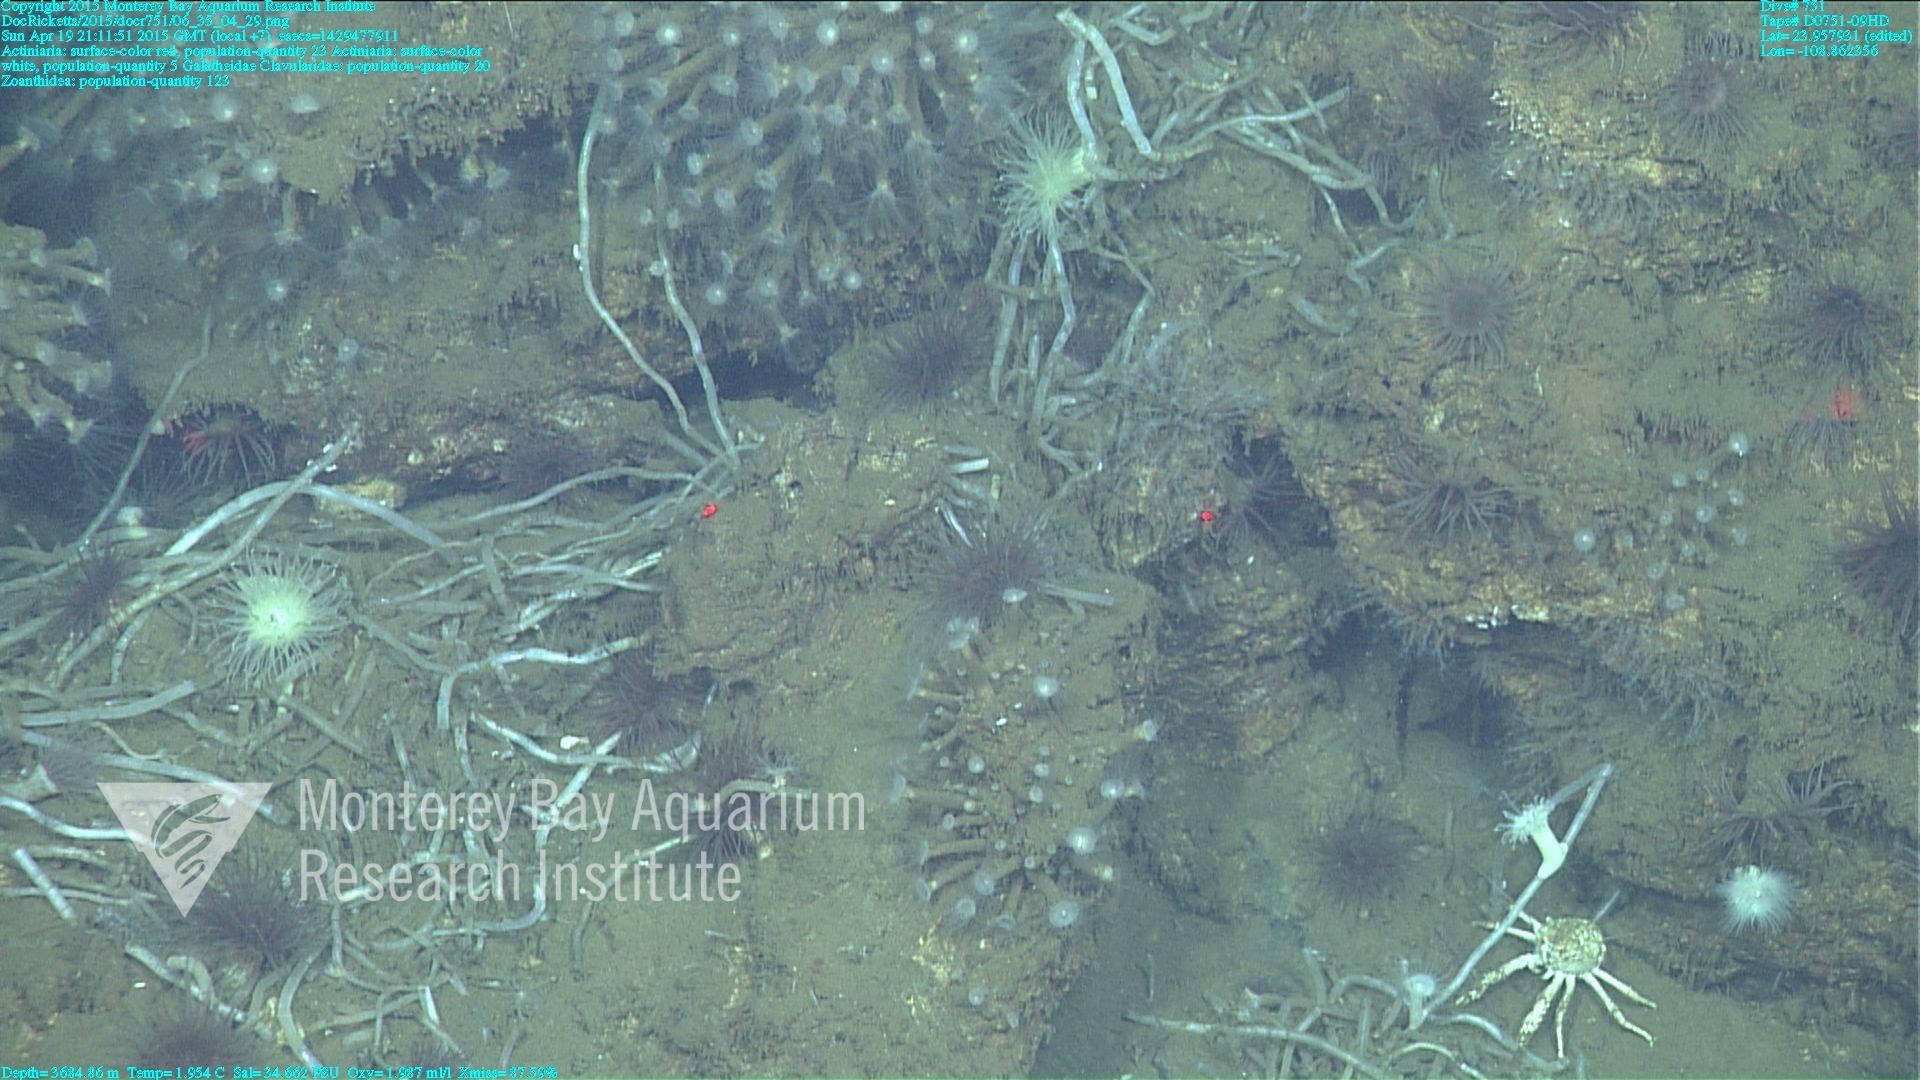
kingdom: Animalia
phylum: Cnidaria
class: Anthozoa
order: Malacalcyonacea
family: Clavulariidae
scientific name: Clavulariidae
